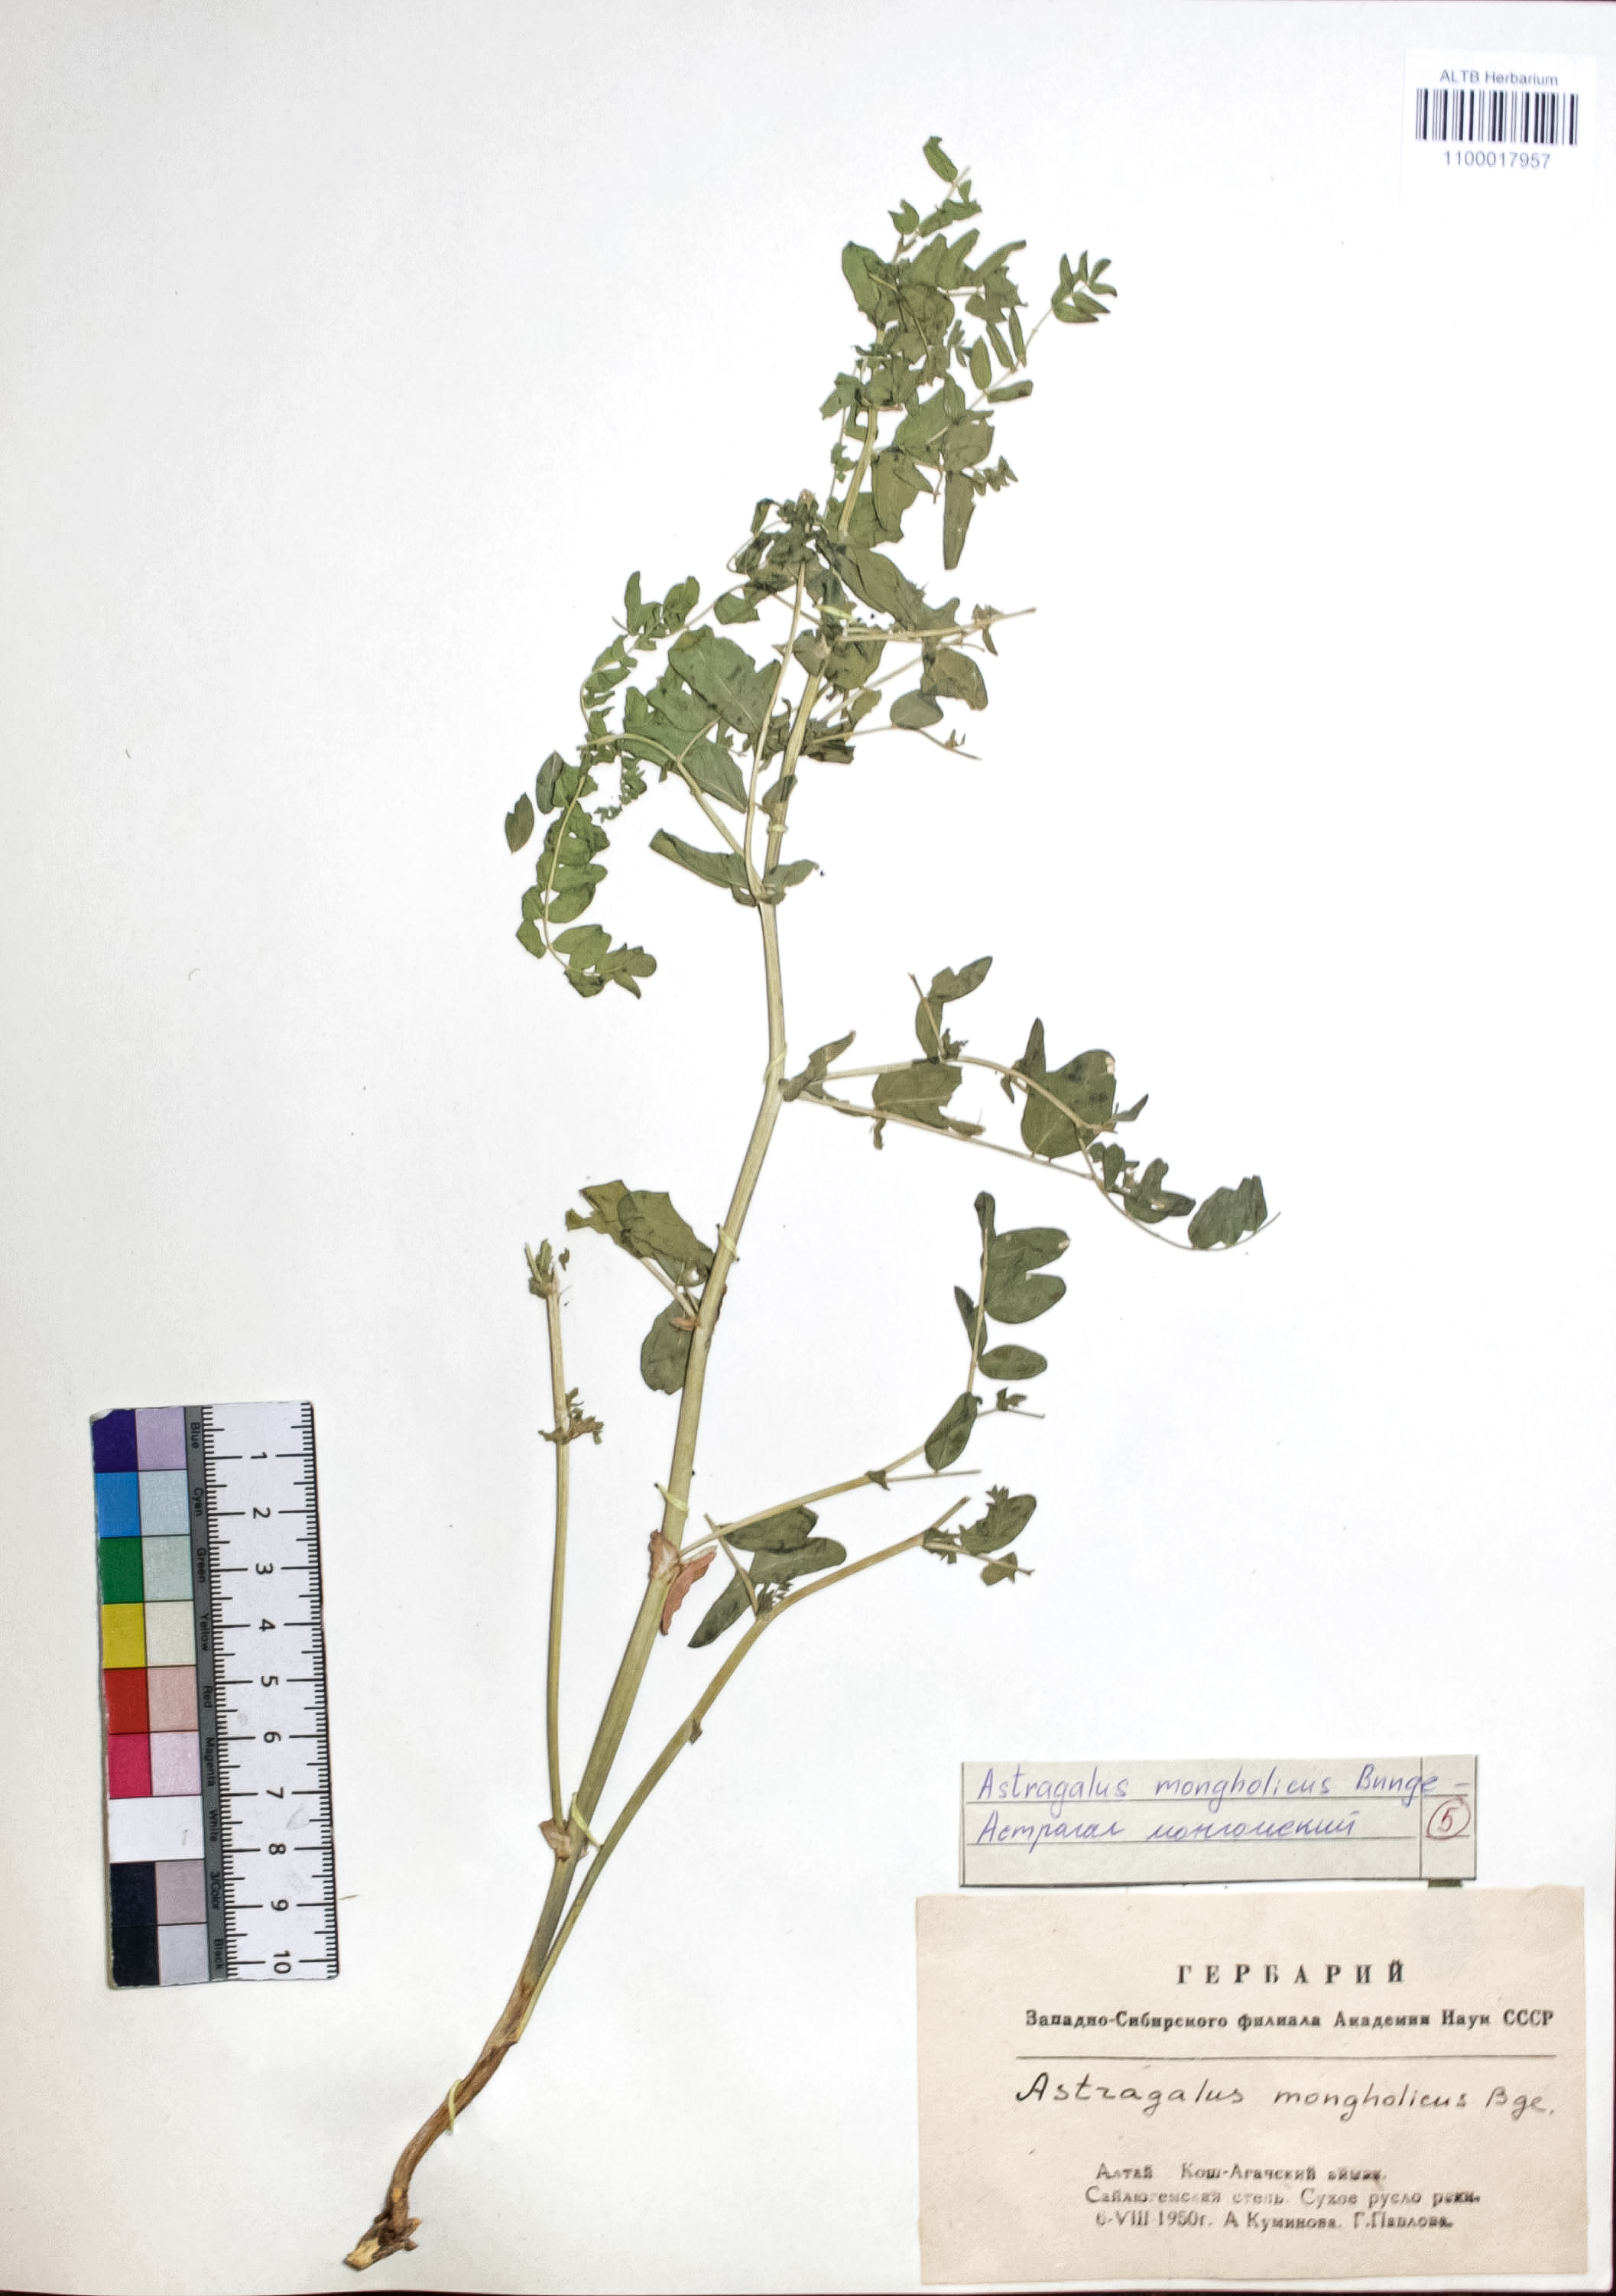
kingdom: Plantae
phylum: Tracheophyta
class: Magnoliopsida
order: Fabales
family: Fabaceae
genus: Astragalus
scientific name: Astragalus mongolicus
